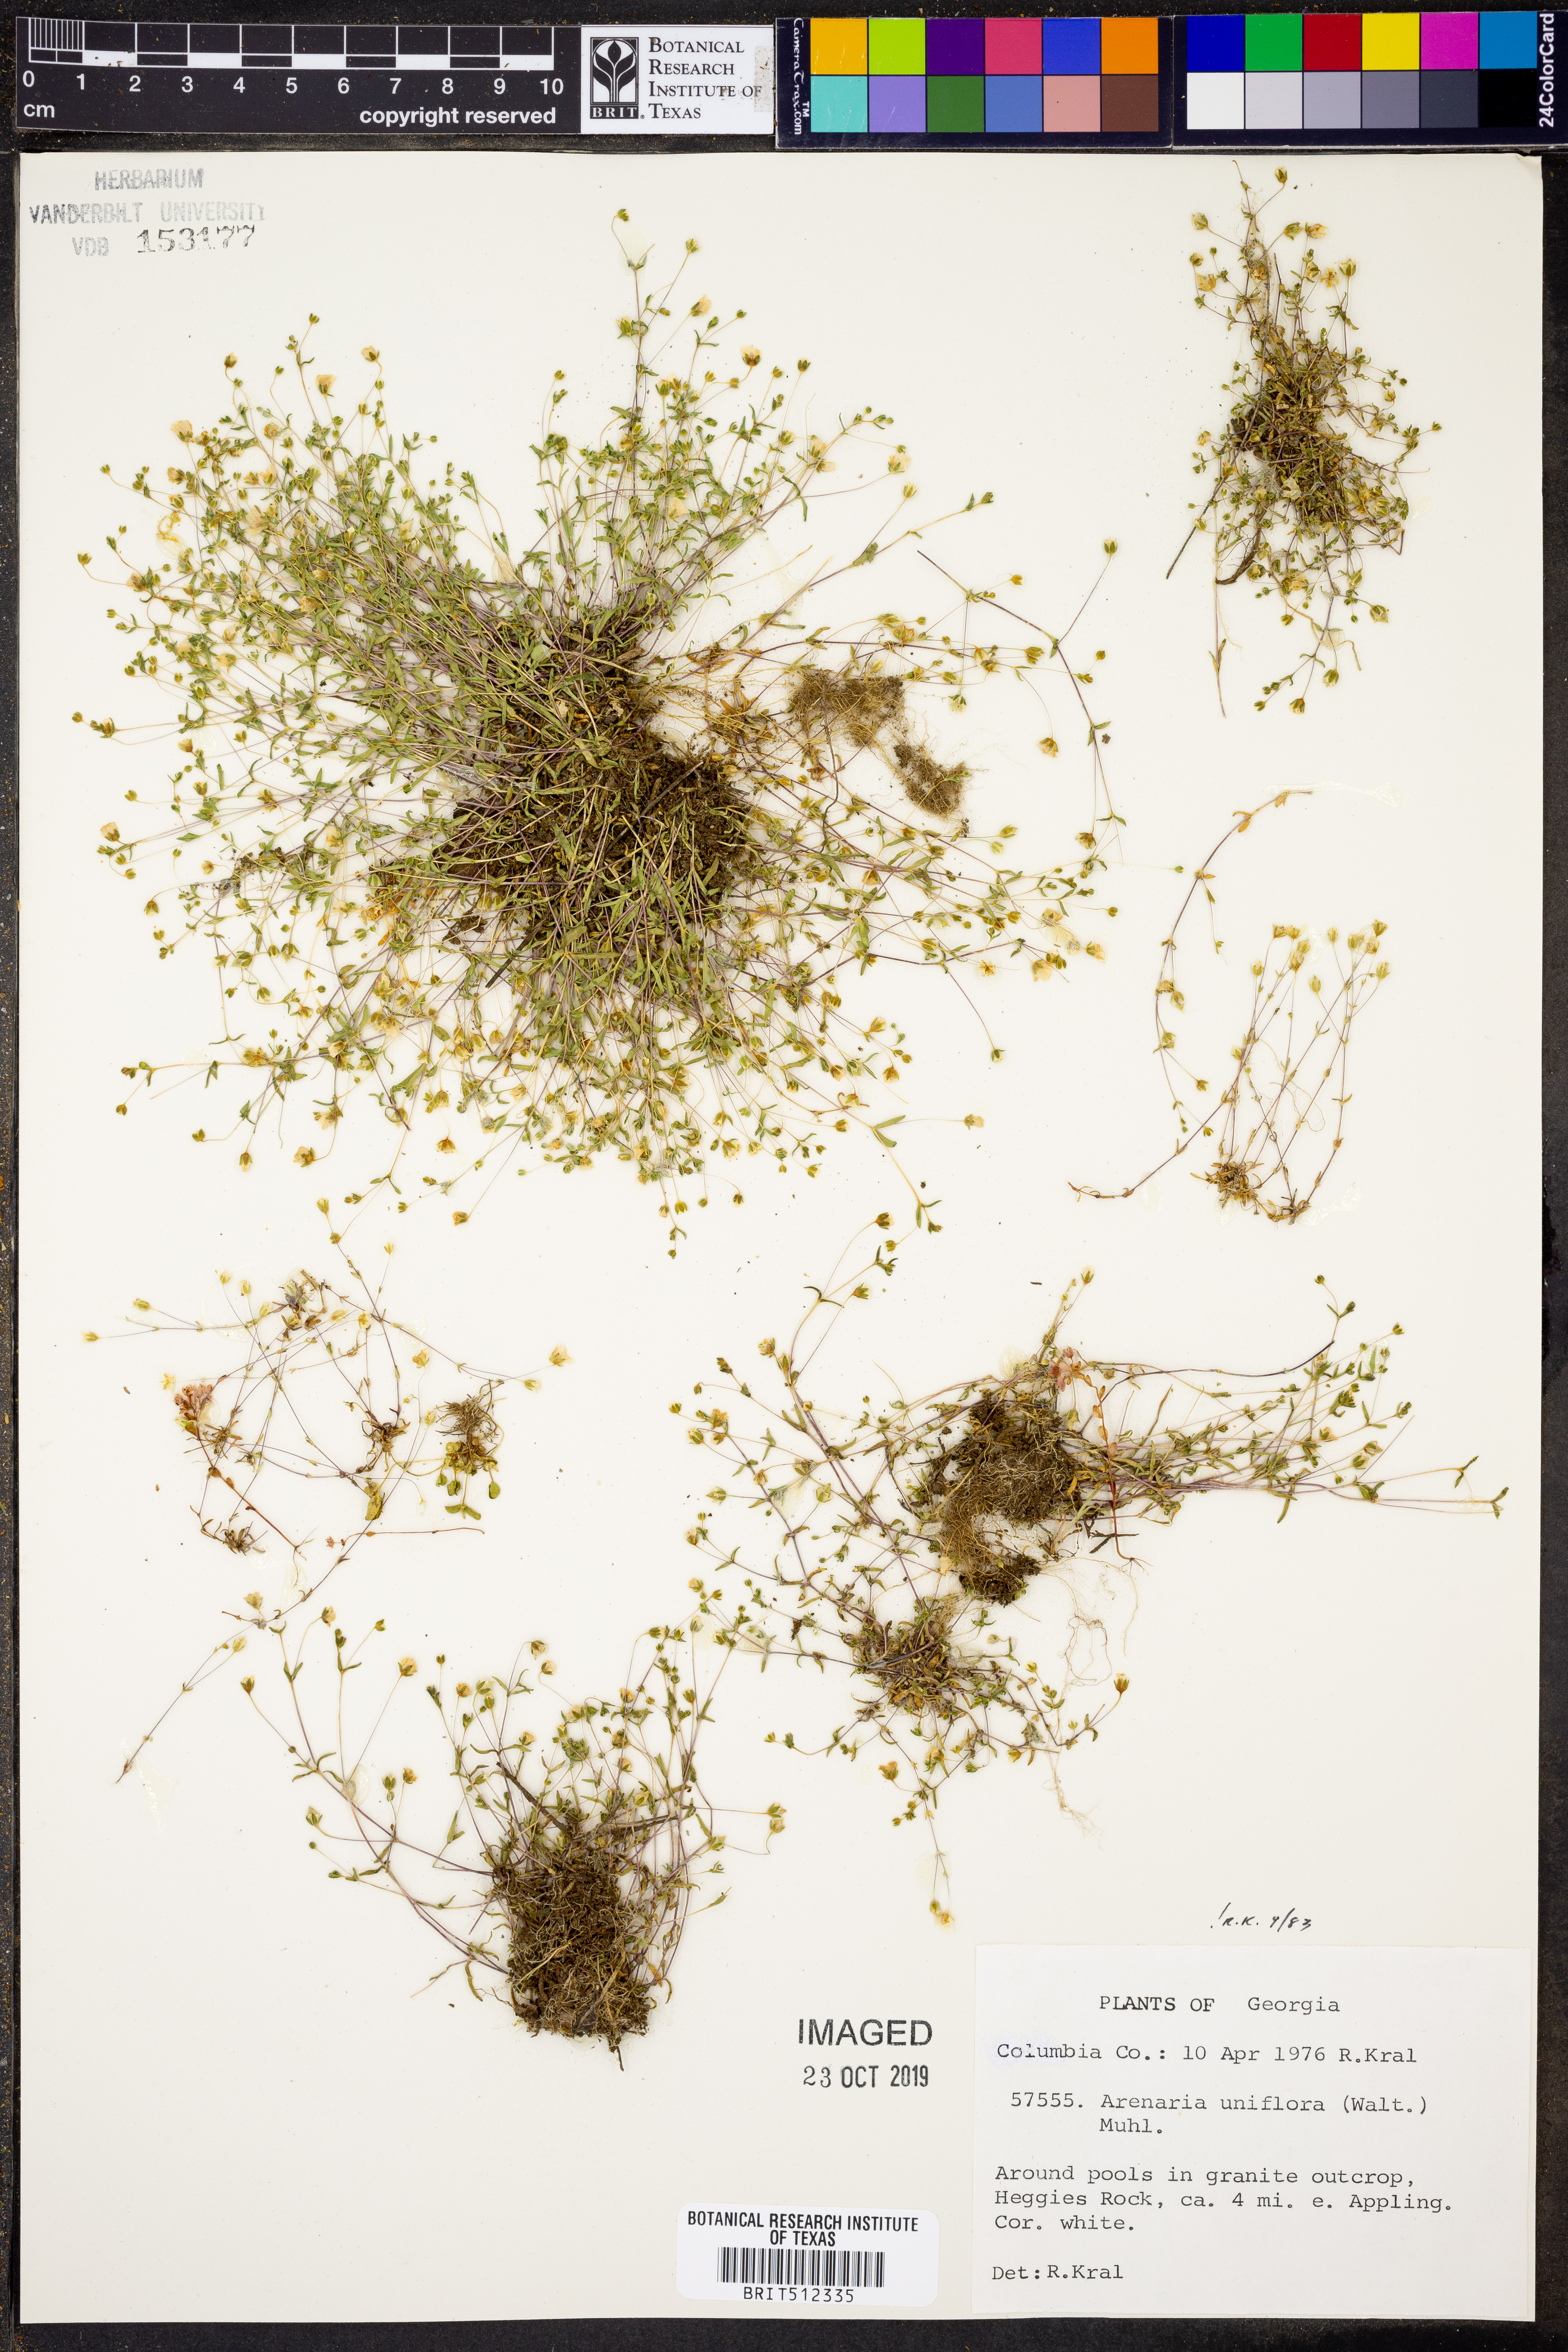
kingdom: Plantae
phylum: Tracheophyta
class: Magnoliopsida
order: Caryophyllales
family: Caryophyllaceae
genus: Geocarpon
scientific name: Geocarpon uniflorum
